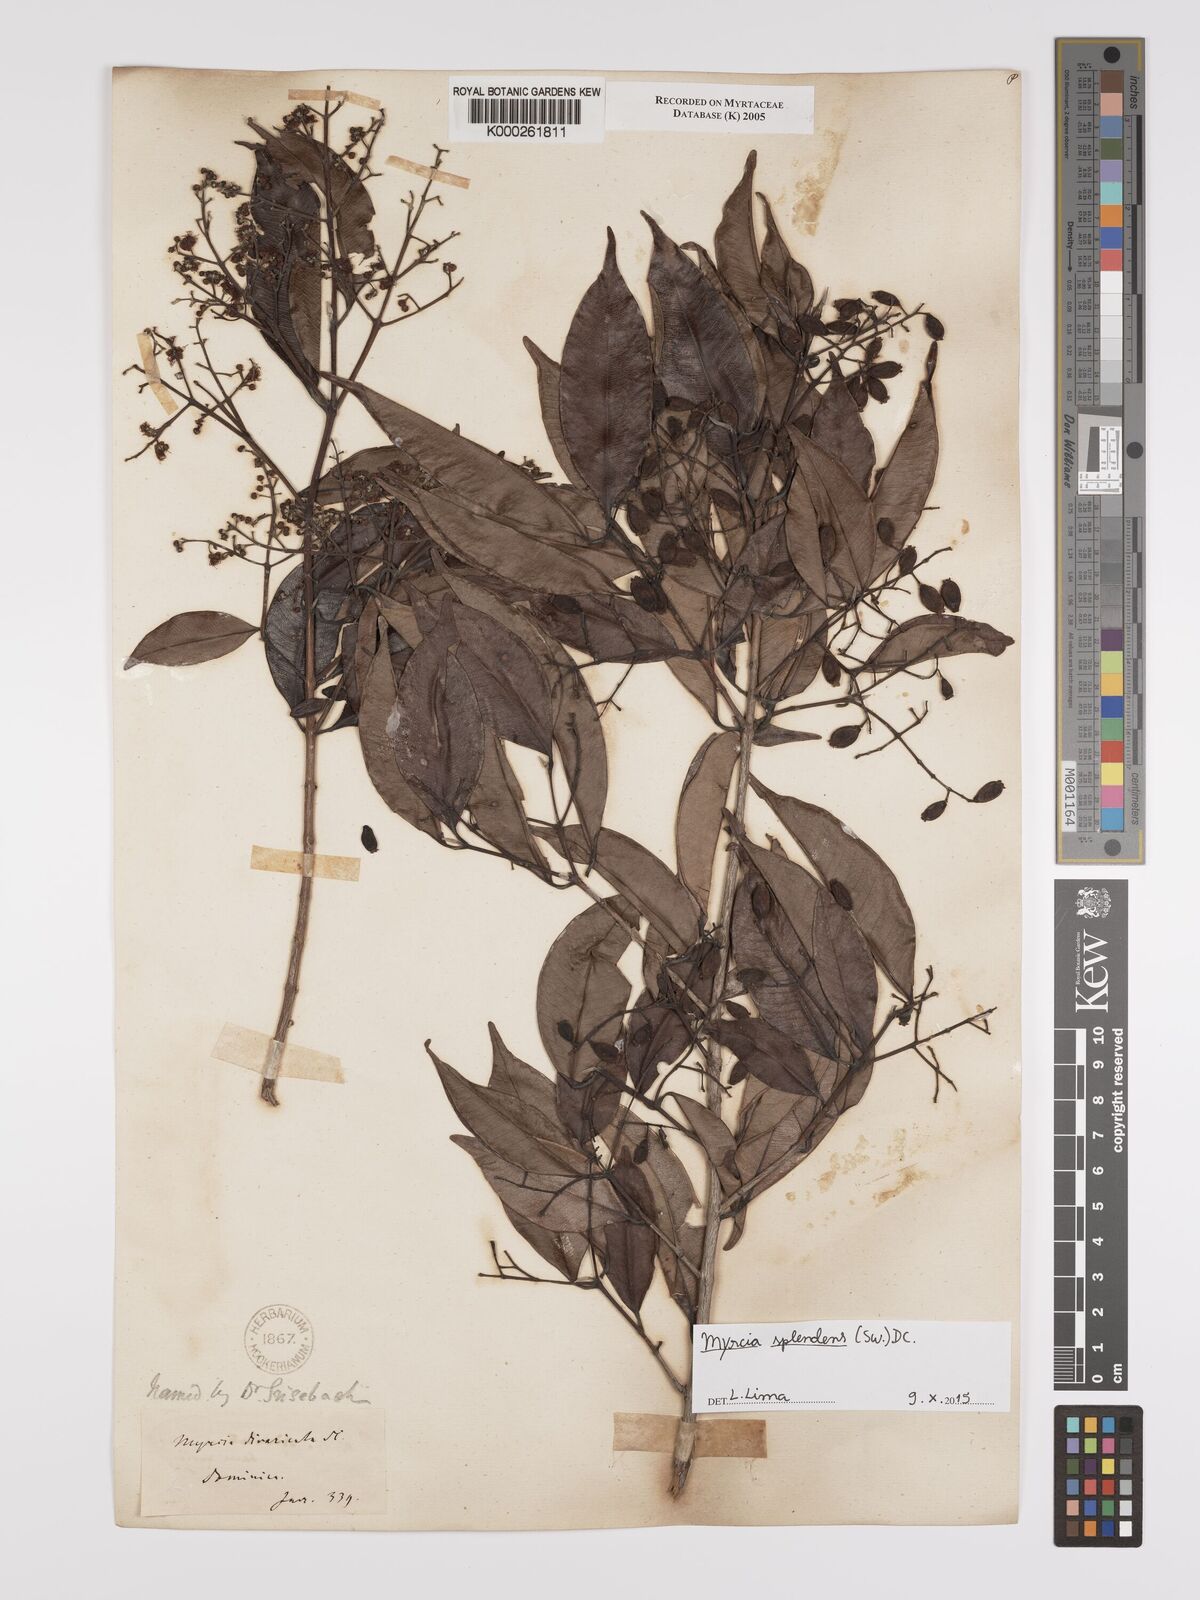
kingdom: Plantae
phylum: Tracheophyta
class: Magnoliopsida
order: Myrtales
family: Myrtaceae
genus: Myrcia
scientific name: Myrcia splendens
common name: Surinam cherry
